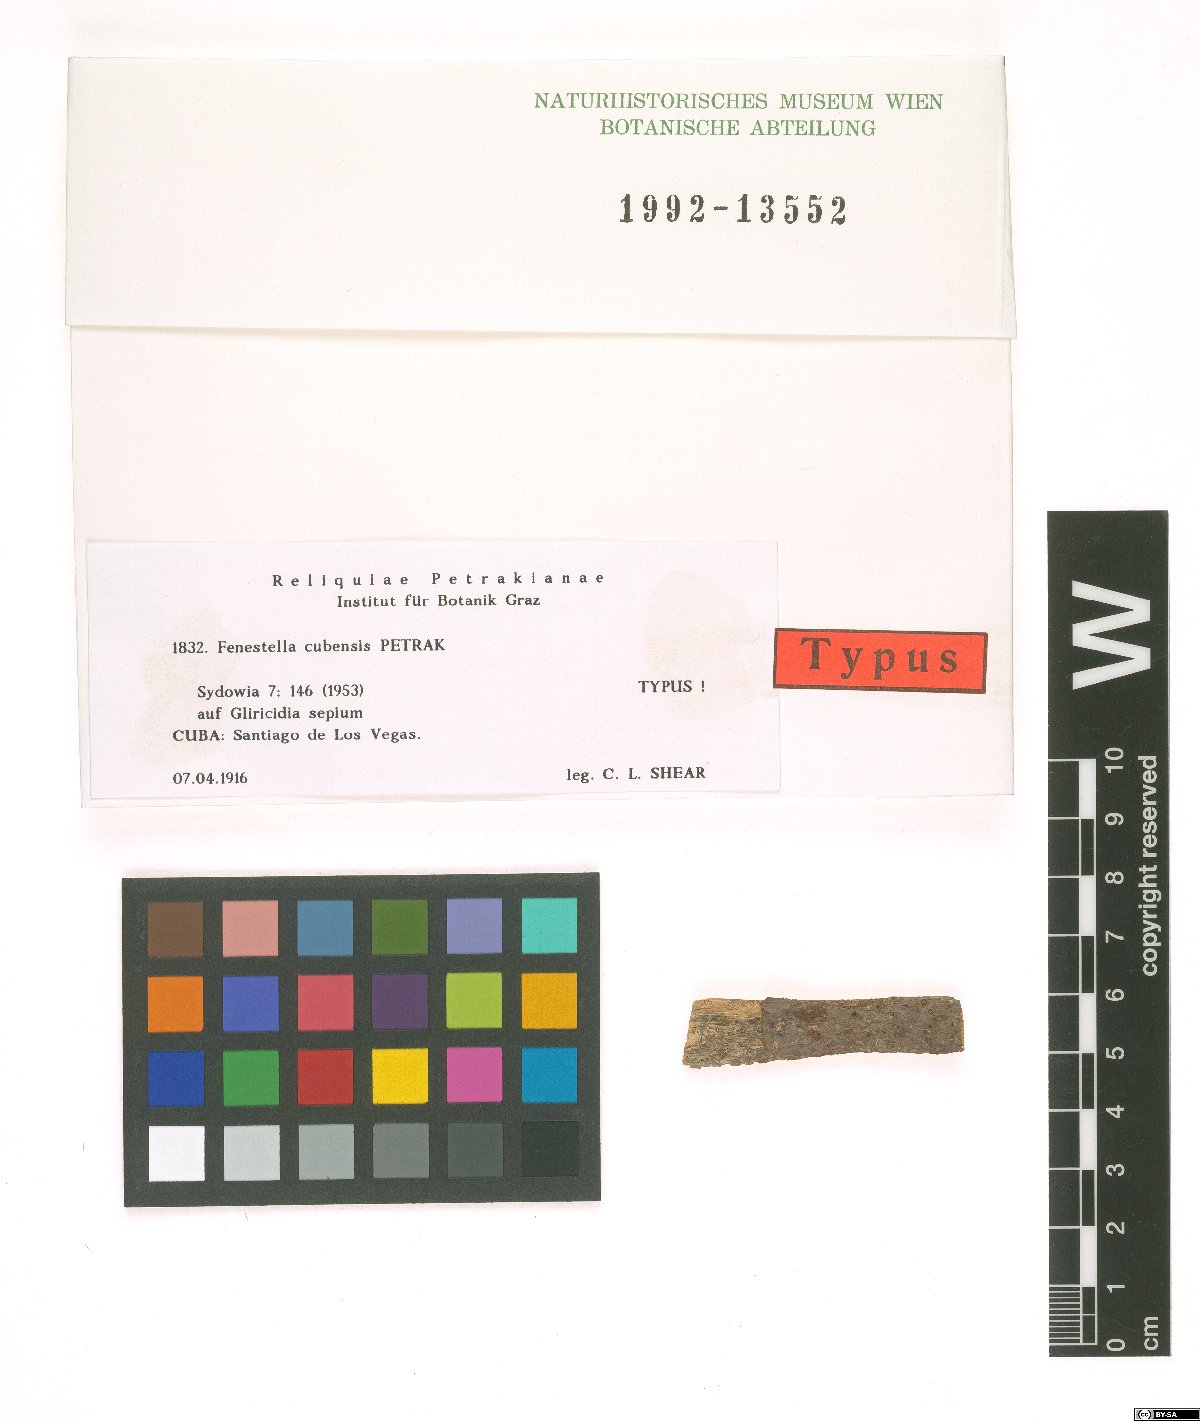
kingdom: Fungi
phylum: Ascomycota
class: Dothideomycetes
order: Pleosporales
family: Fenestellaceae
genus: Fenestella
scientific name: Fenestella cubensis
